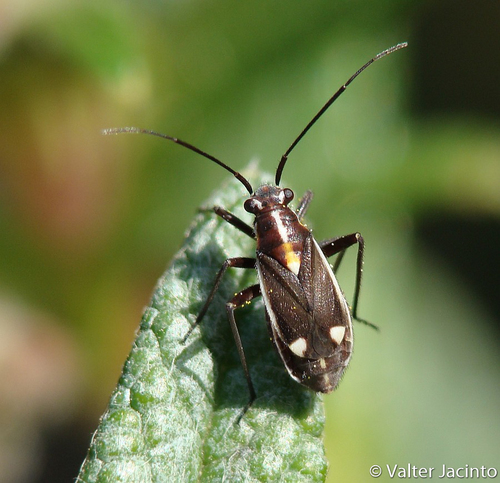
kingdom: Animalia
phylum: Arthropoda
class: Insecta
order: Hemiptera
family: Miridae
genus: Capsodes
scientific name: Capsodes sulcatus
